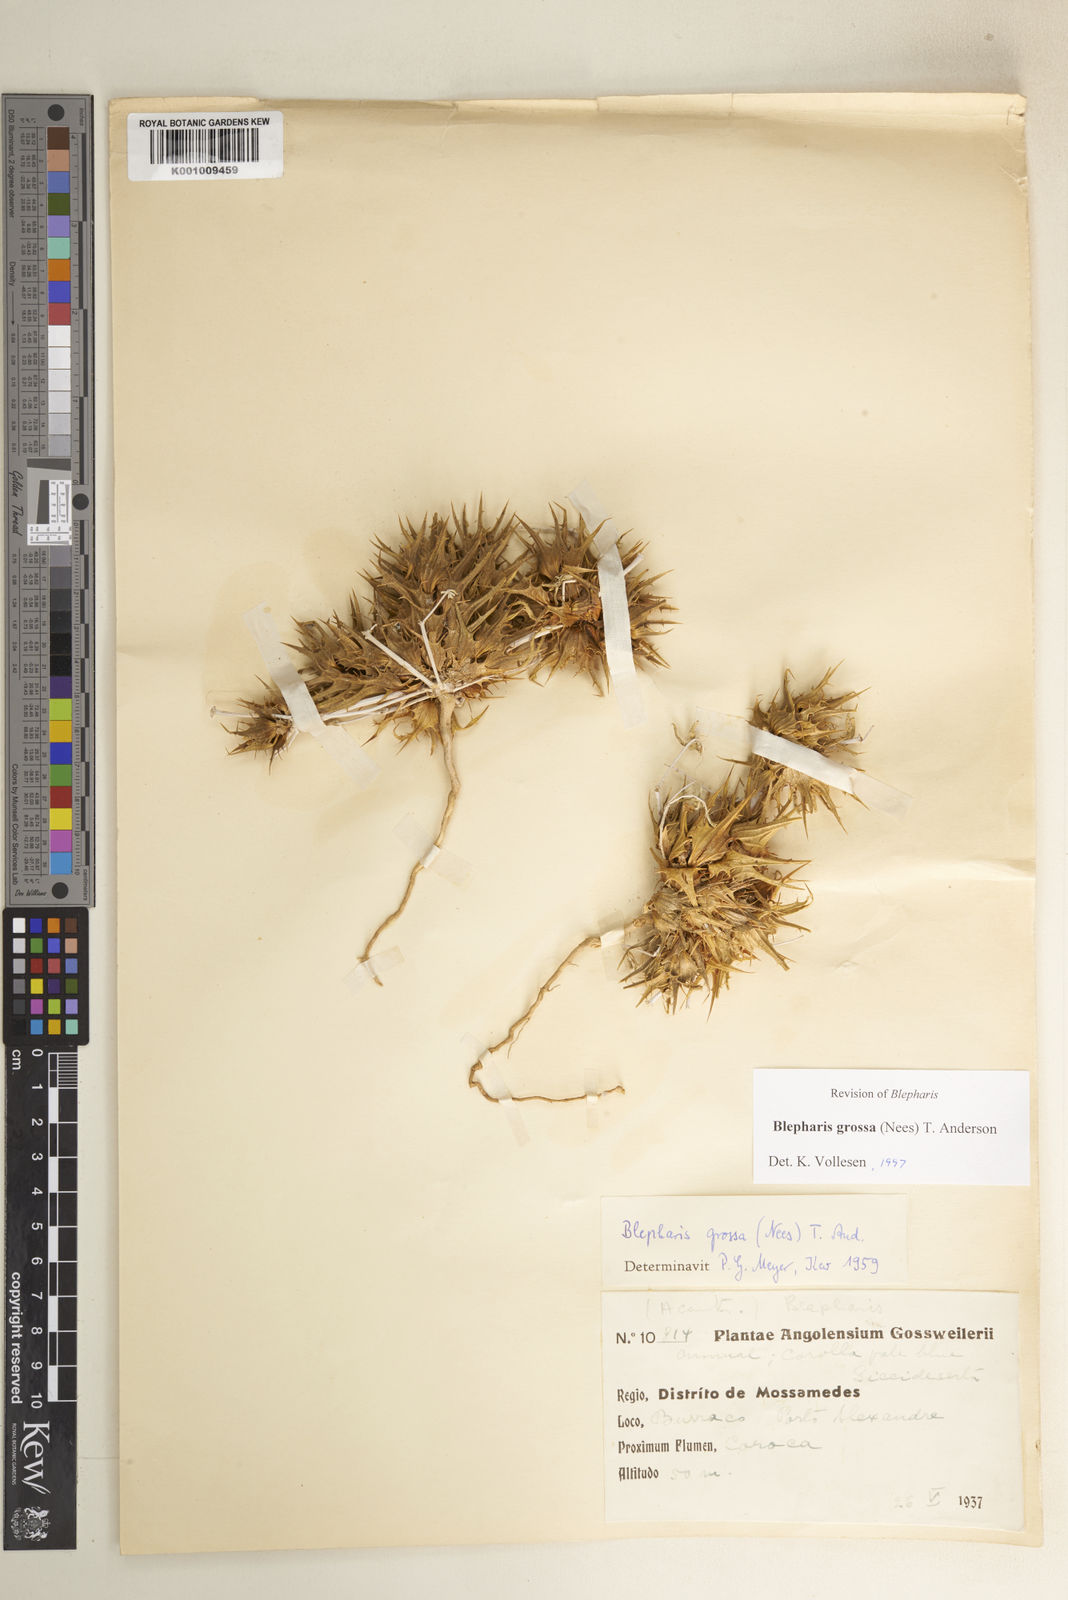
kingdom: Plantae
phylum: Tracheophyta
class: Magnoliopsida
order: Lamiales
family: Acanthaceae
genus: Blepharis
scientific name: Blepharis grossa
